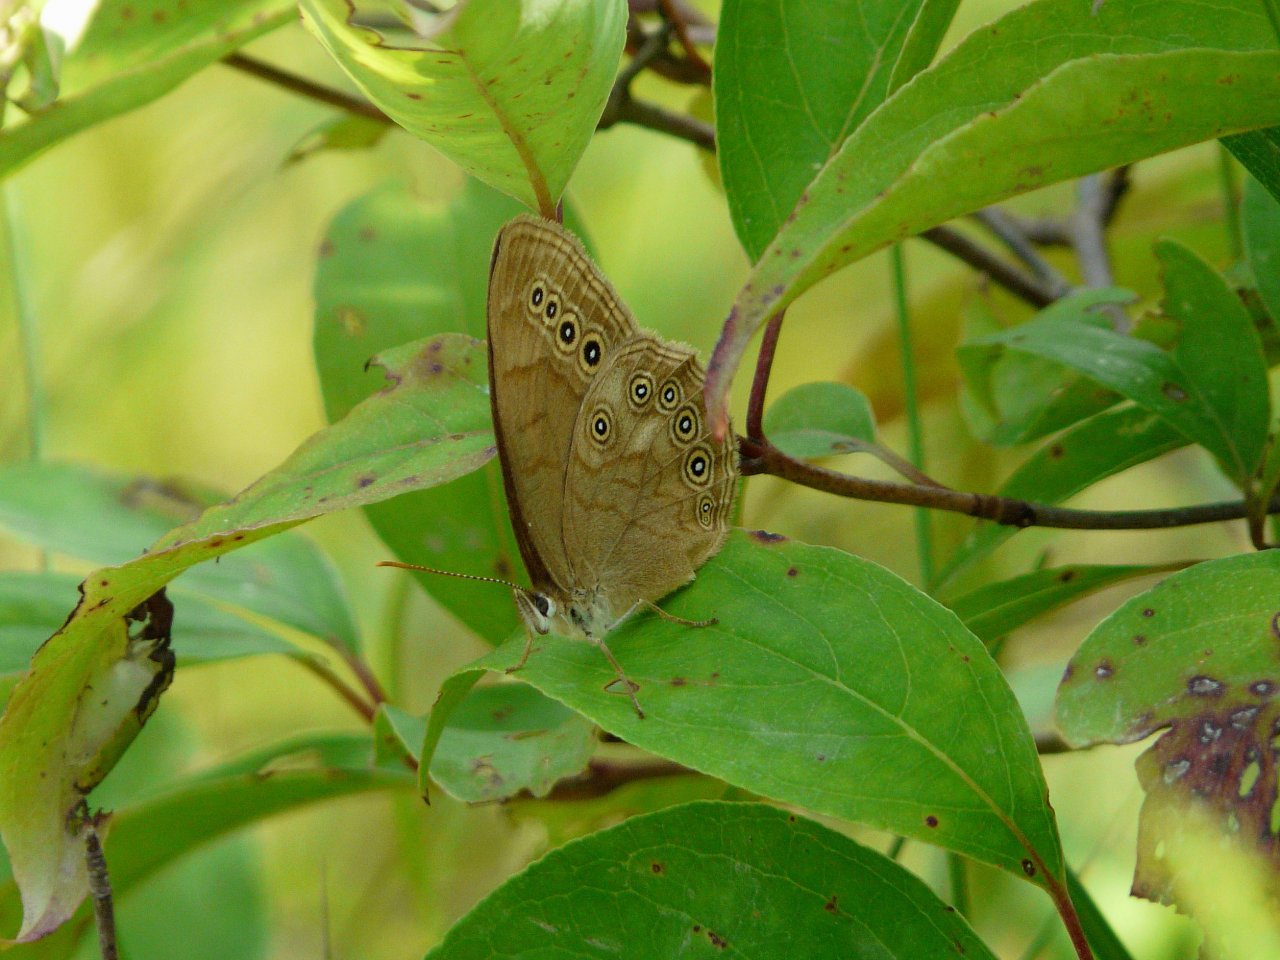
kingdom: Animalia
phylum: Arthropoda
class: Insecta
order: Lepidoptera
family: Nymphalidae
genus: Lethe
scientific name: Lethe eurydice
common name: Eyed Brown
